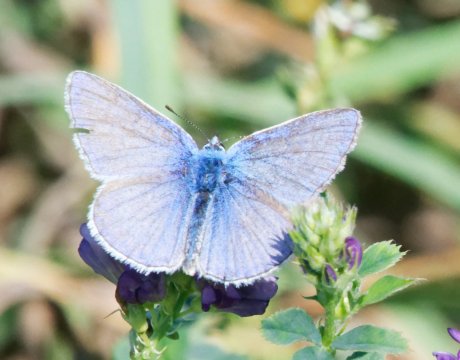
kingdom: Animalia
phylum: Arthropoda
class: Insecta
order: Lepidoptera
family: Lycaenidae
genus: Polyommatus
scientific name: Polyommatus icarus
